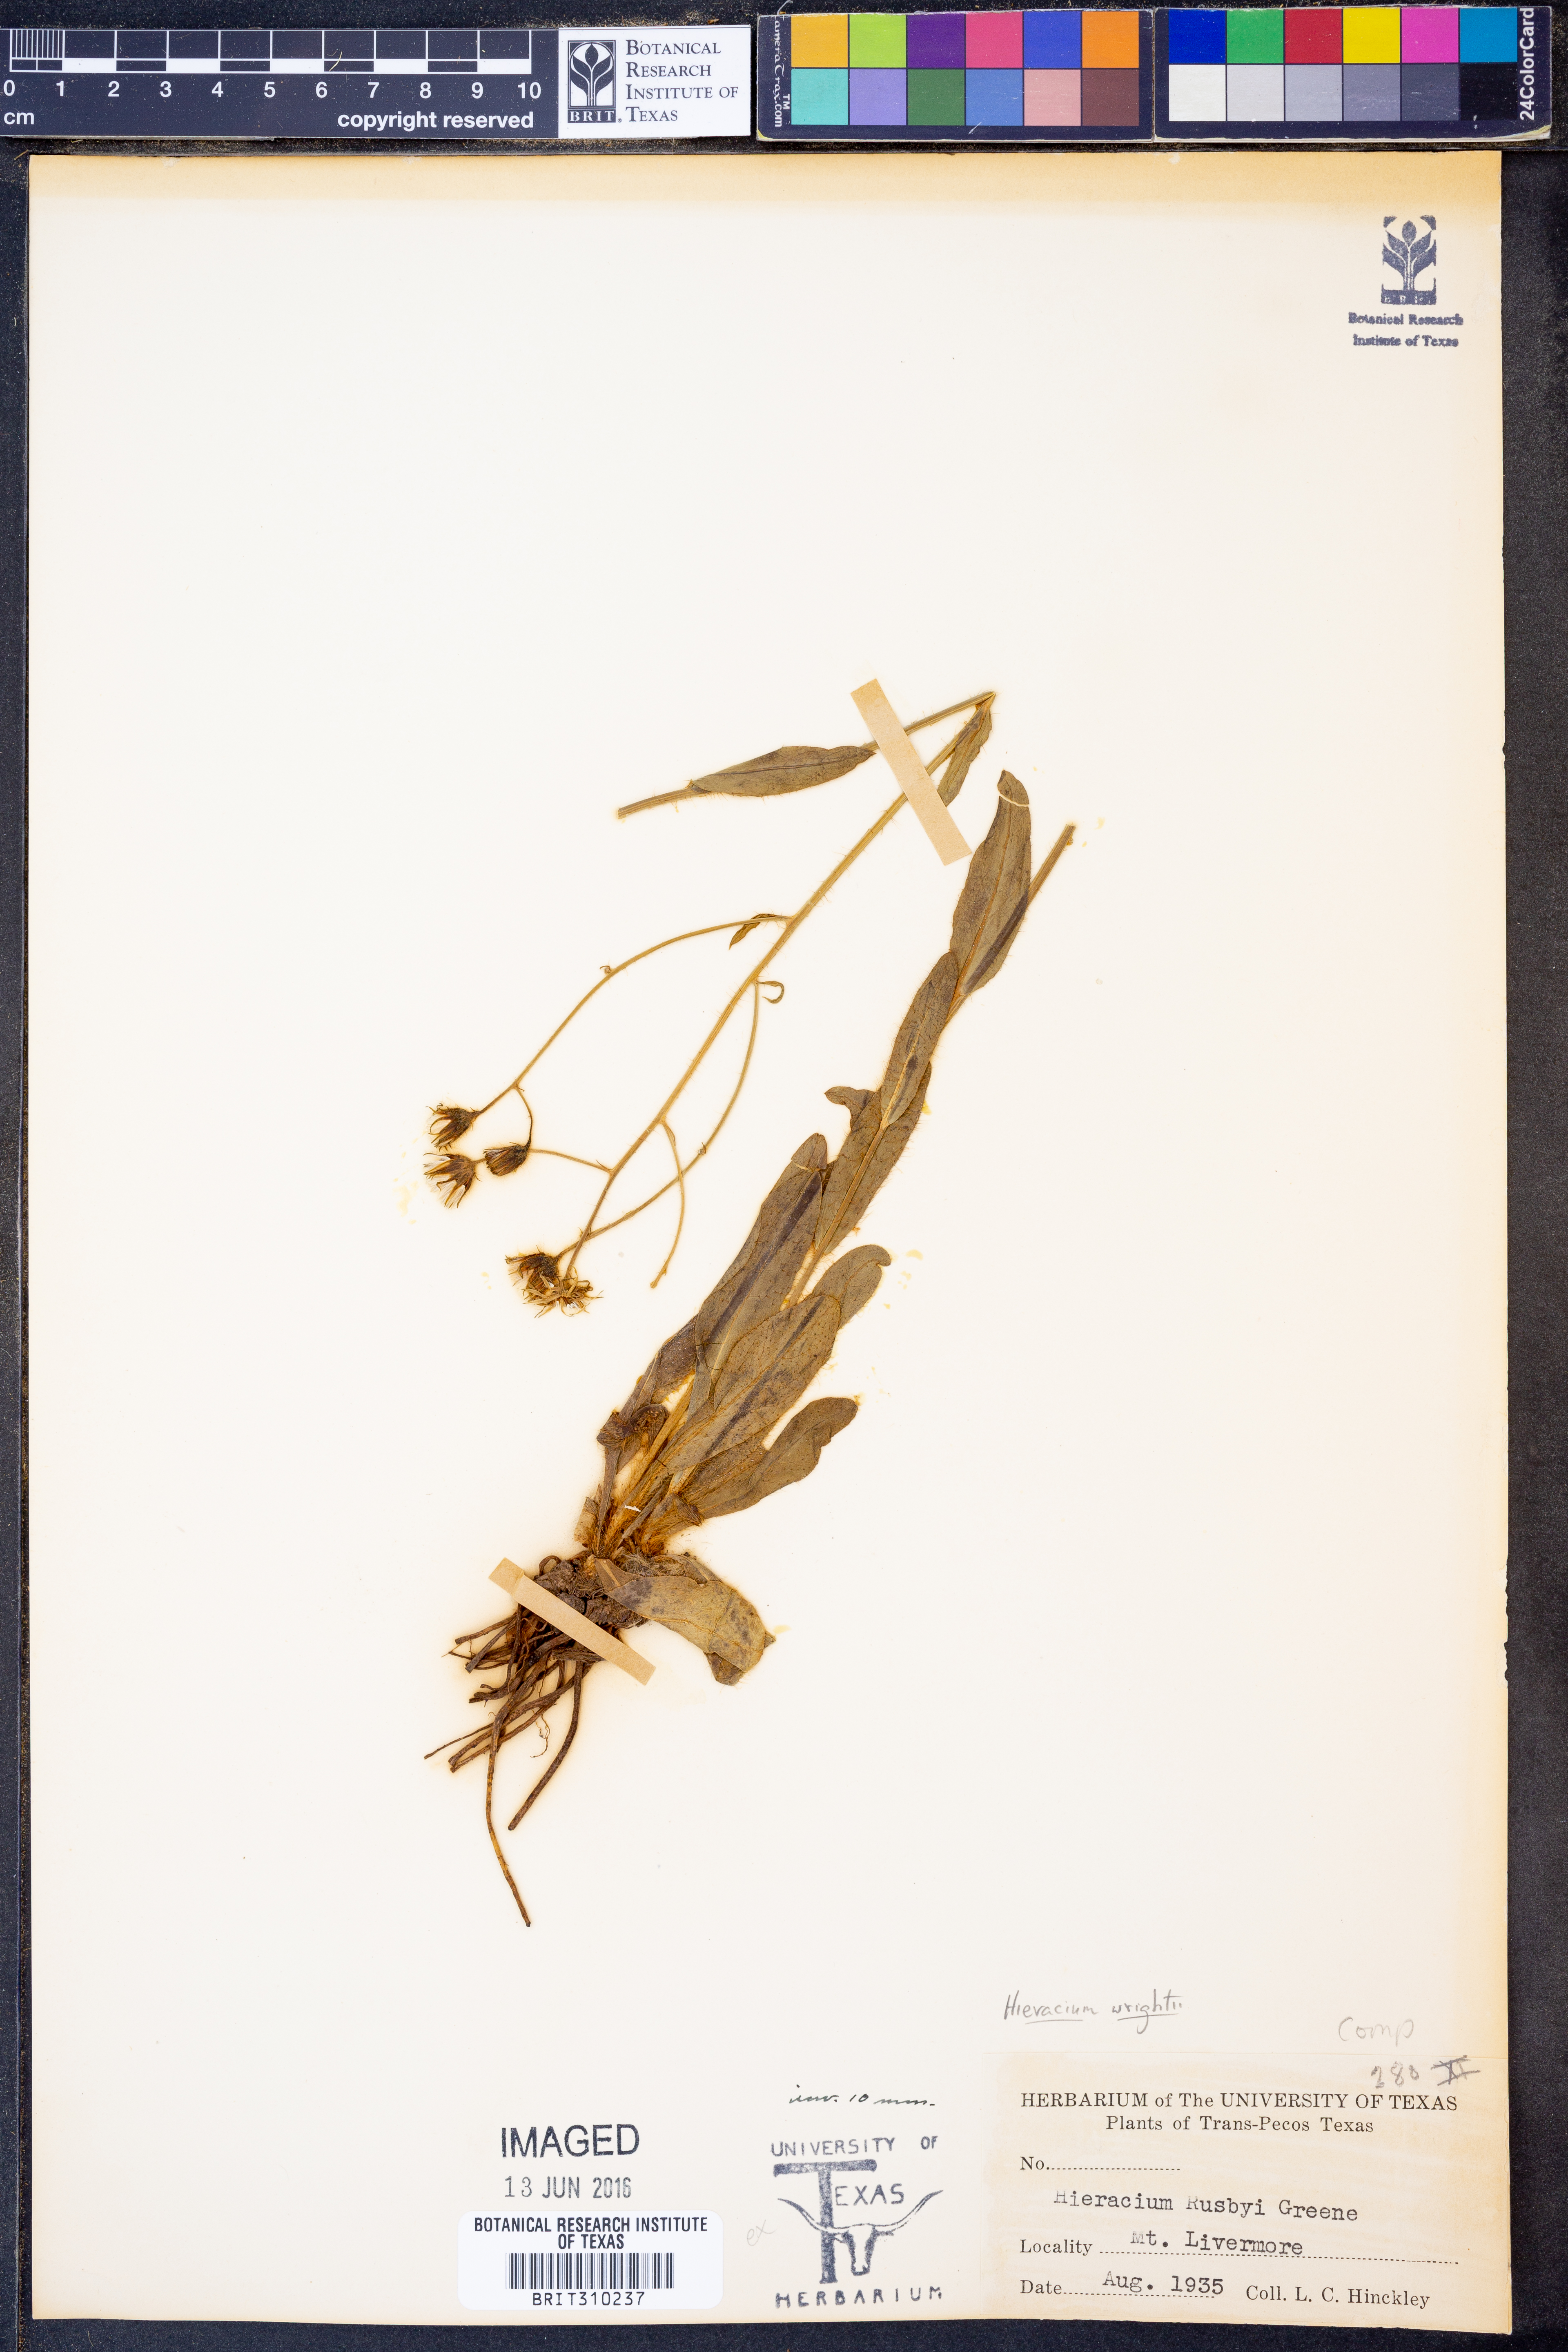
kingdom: Plantae
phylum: Tracheophyta
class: Magnoliopsida
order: Asterales
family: Asteraceae
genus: Hieracium
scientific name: Hieracium friesii
